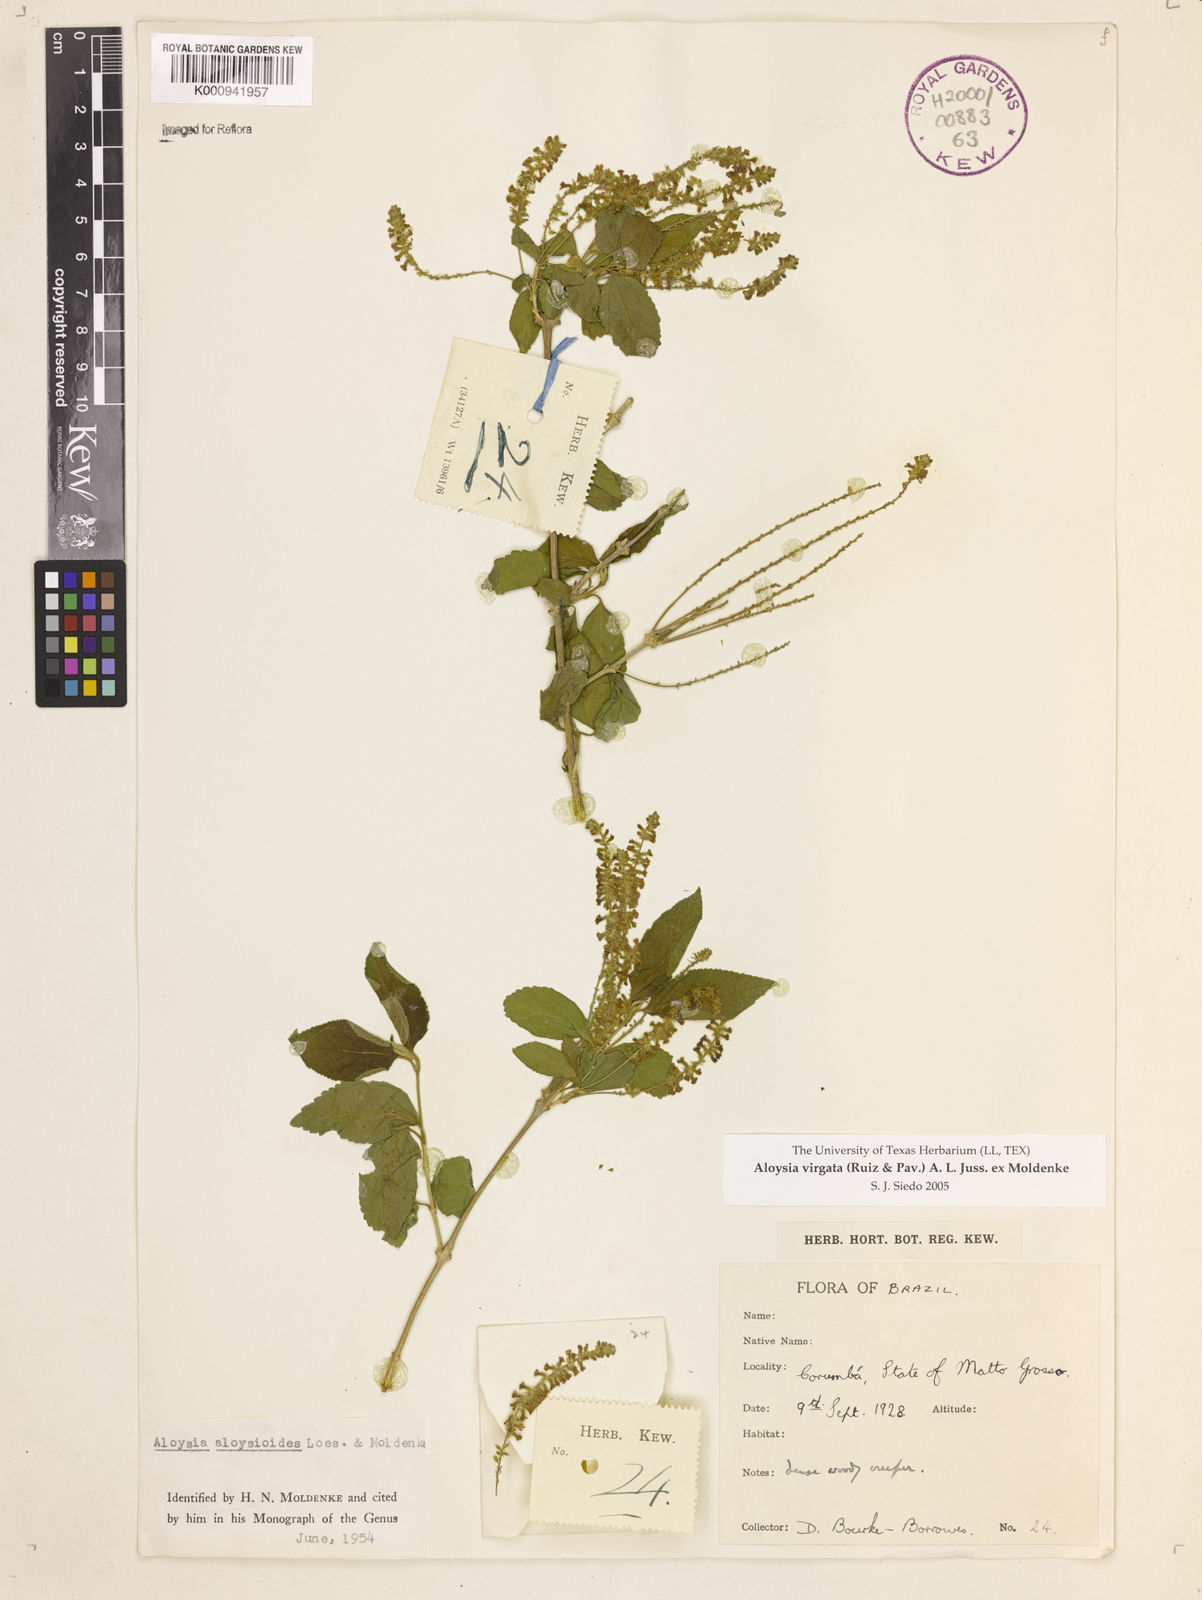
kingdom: Plantae
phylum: Tracheophyta
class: Magnoliopsida
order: Lamiales
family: Verbenaceae
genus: Aloysia
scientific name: Aloysia
